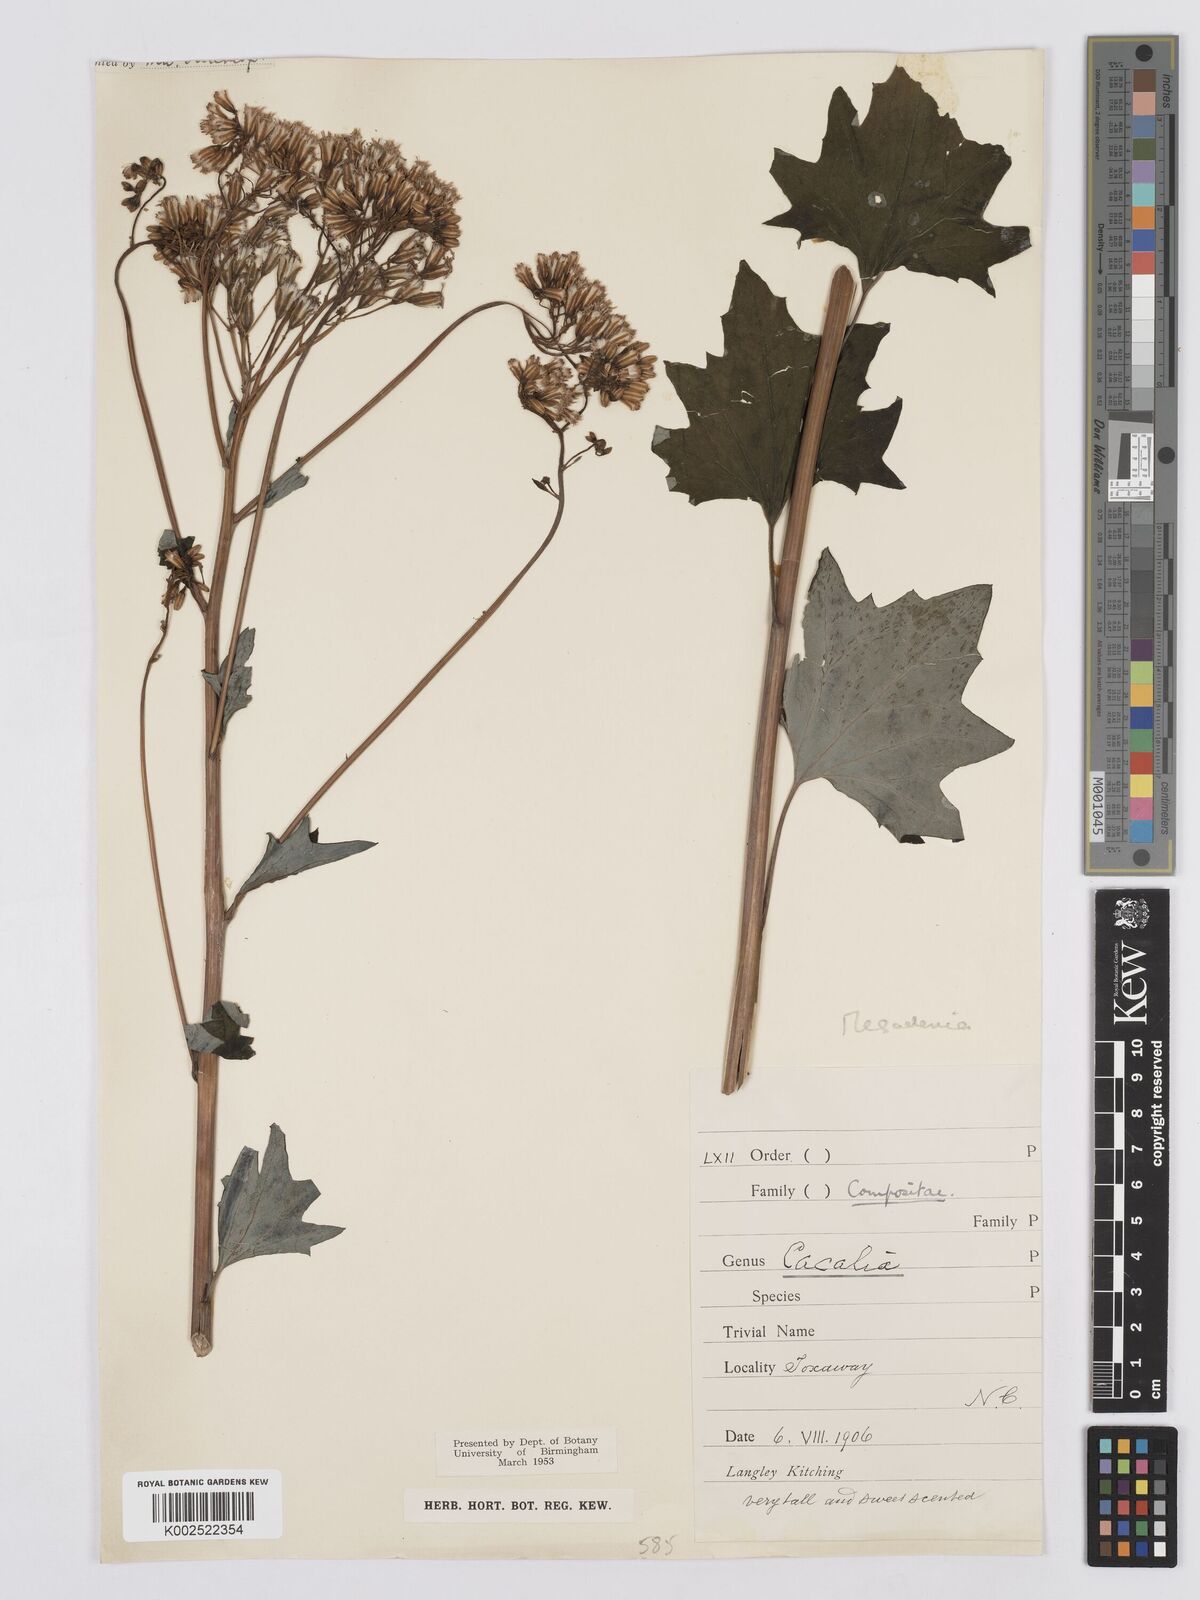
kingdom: Plantae
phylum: Tracheophyta
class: Magnoliopsida
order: Asterales
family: Asteraceae
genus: Arnoglossum
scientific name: Arnoglossum atriplicifolium
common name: Pale indian-plantain
